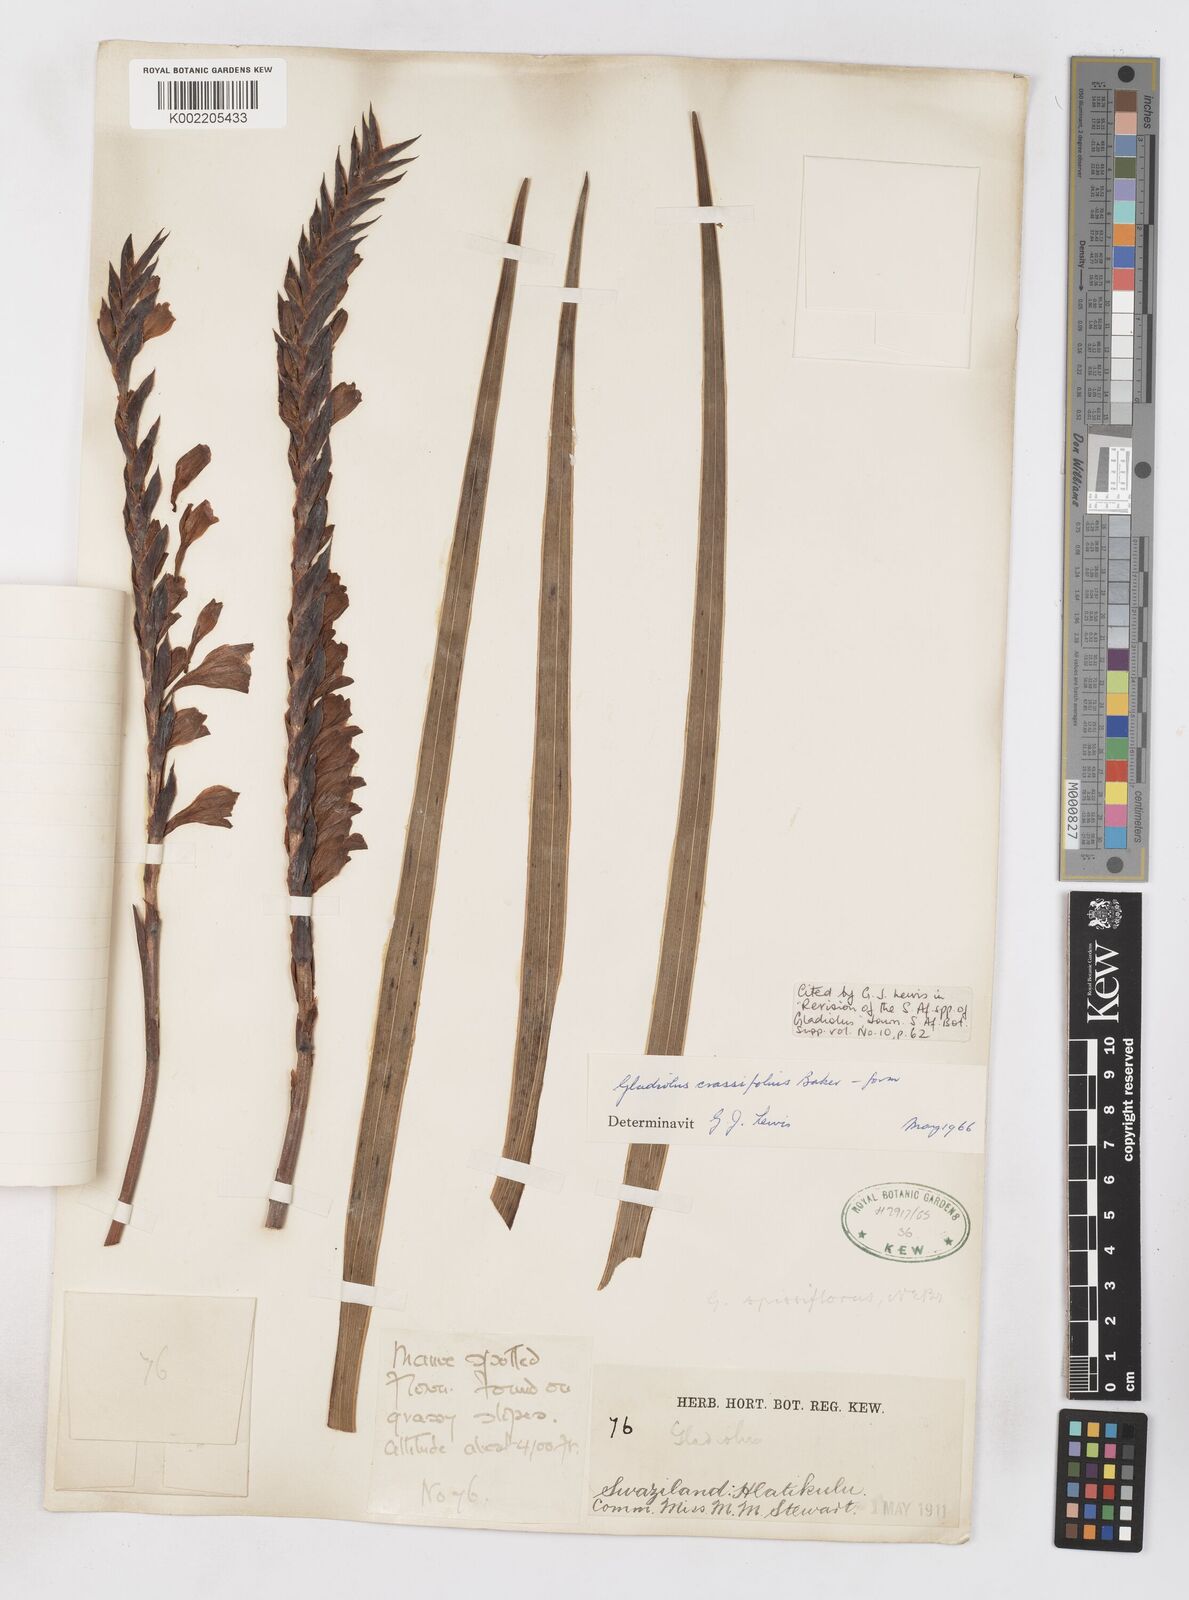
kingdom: Plantae
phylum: Tracheophyta
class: Liliopsida
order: Asparagales
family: Iridaceae
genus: Gladiolus
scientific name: Gladiolus densiflorus
